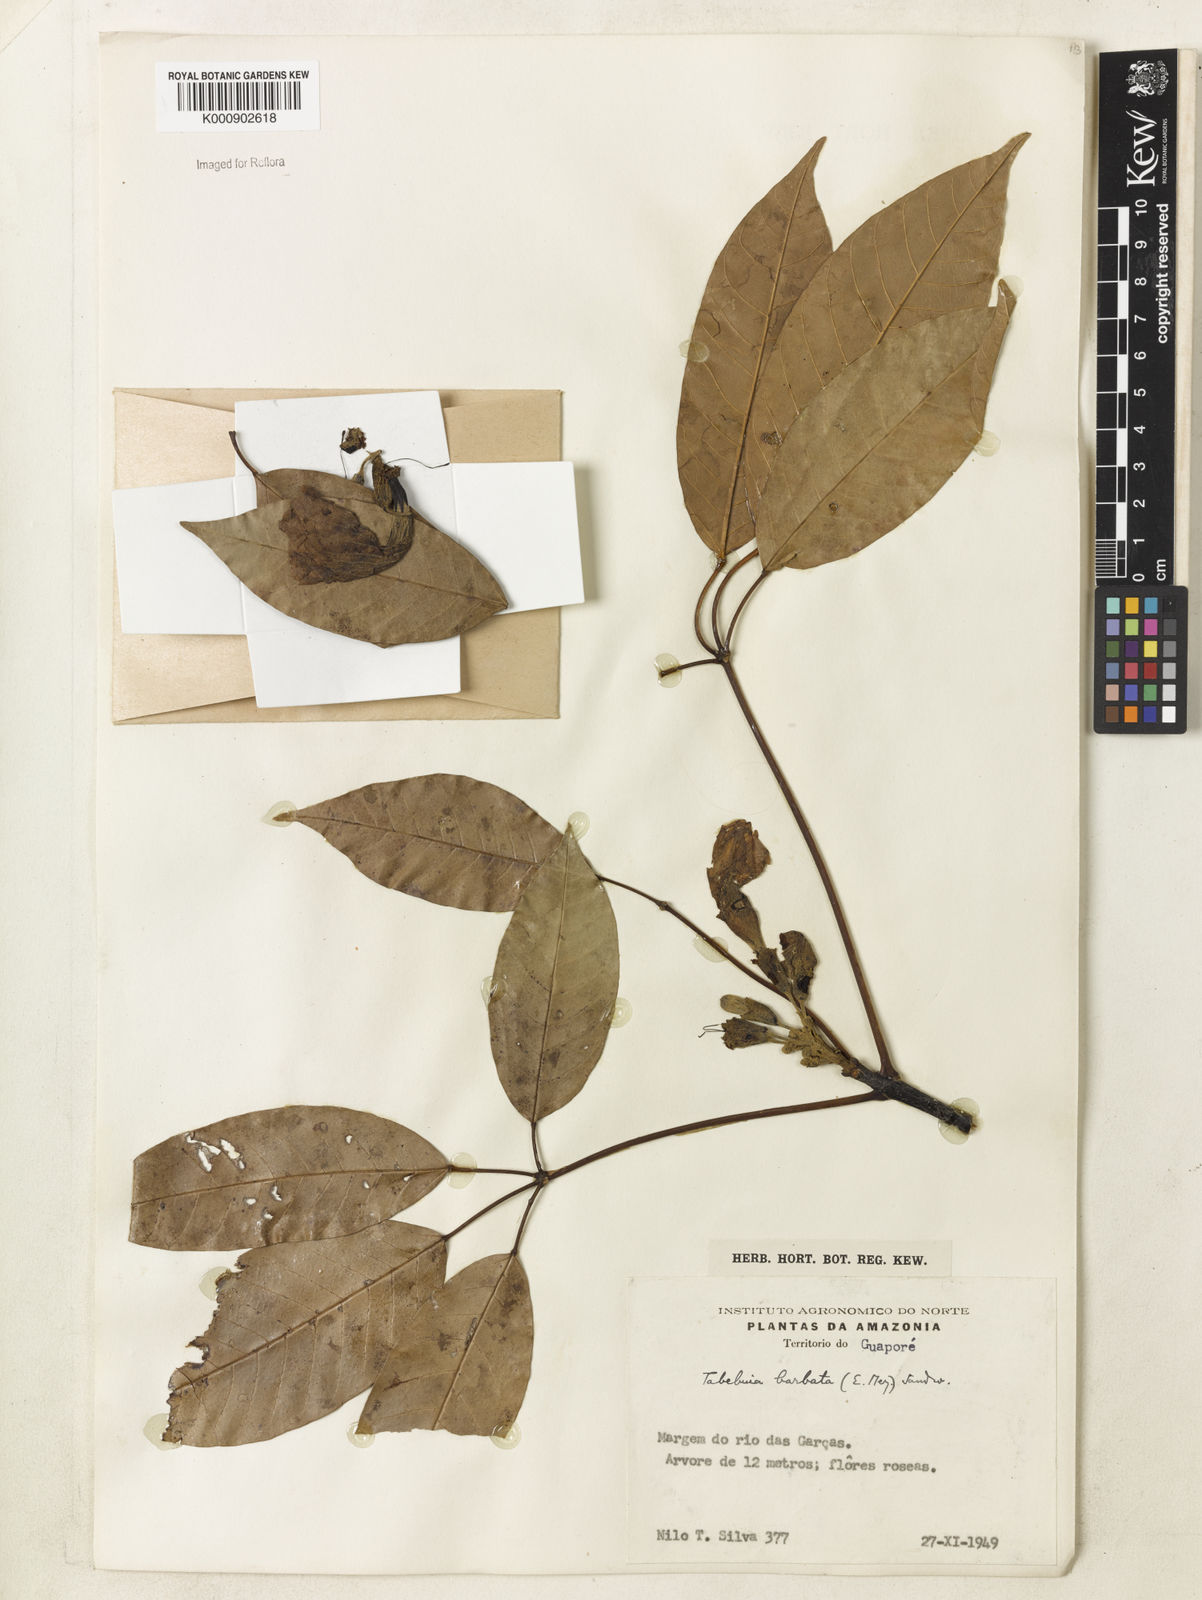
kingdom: Plantae
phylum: Tracheophyta
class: Magnoliopsida
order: Lamiales
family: Bignoniaceae
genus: Handroanthus
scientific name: Handroanthus barbatus
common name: Trumpet trees
